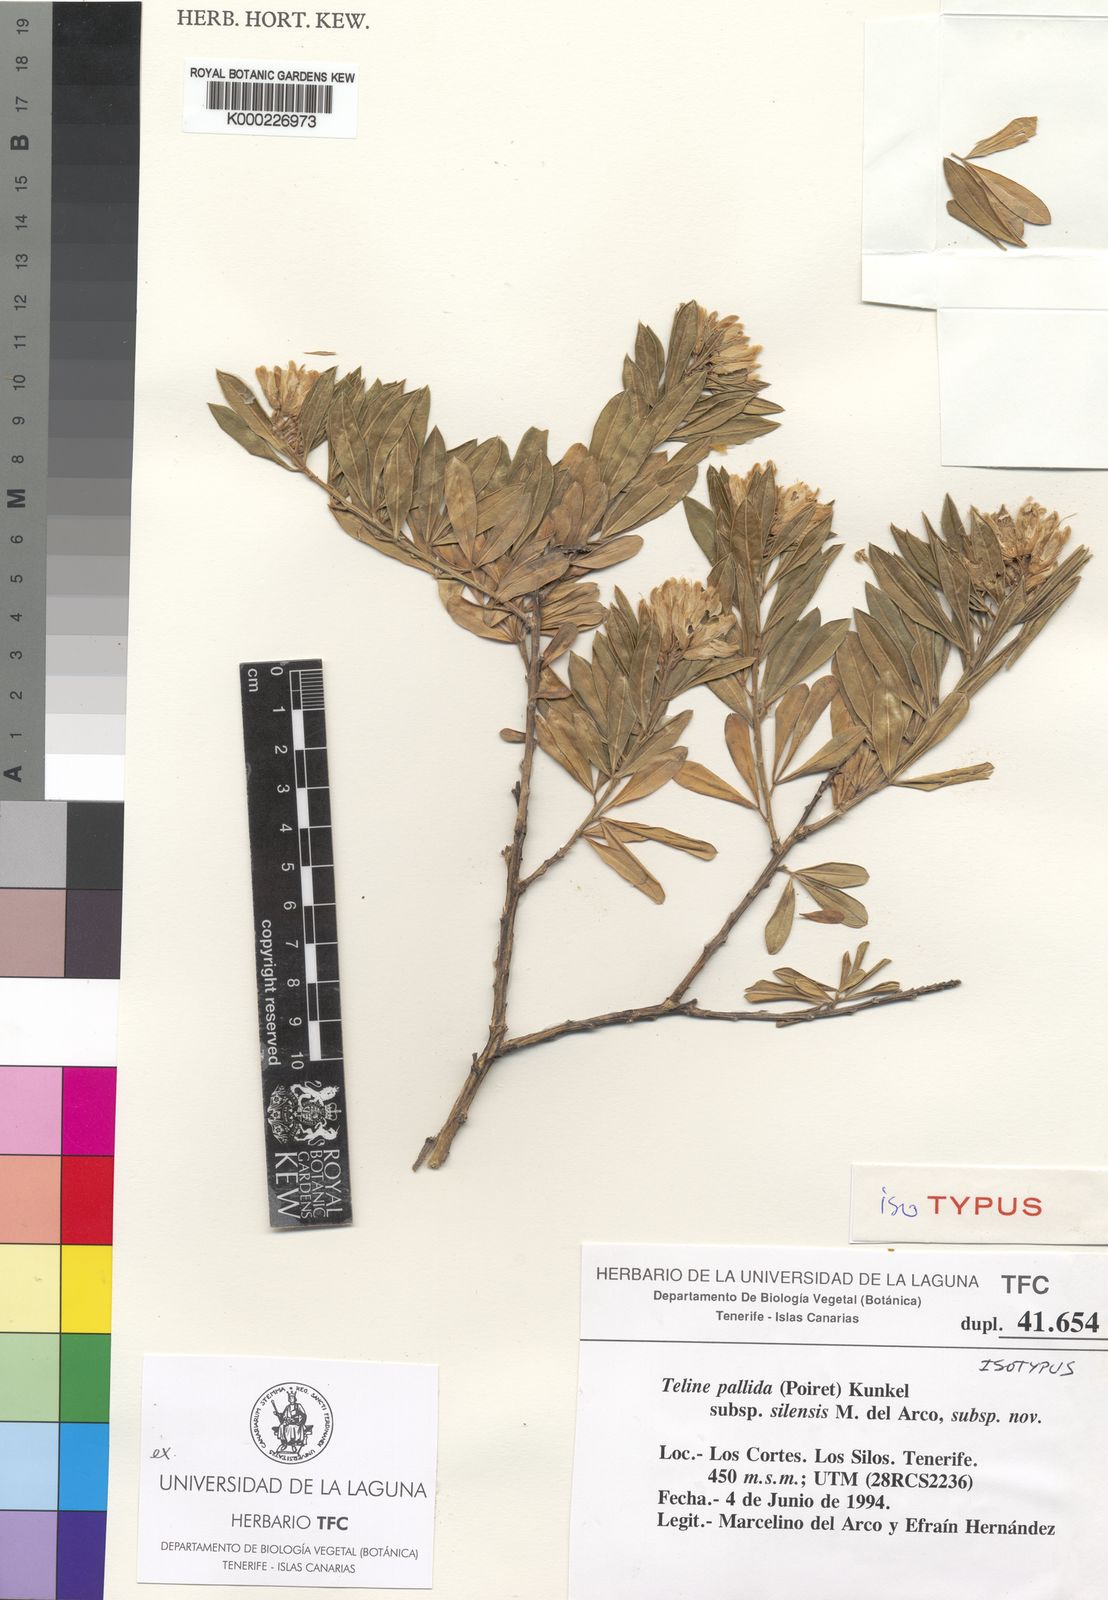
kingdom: Plantae
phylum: Tracheophyta
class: Magnoliopsida
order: Fabales
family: Fabaceae
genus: Genista
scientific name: Genista linifolia
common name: Mediterranean broom
